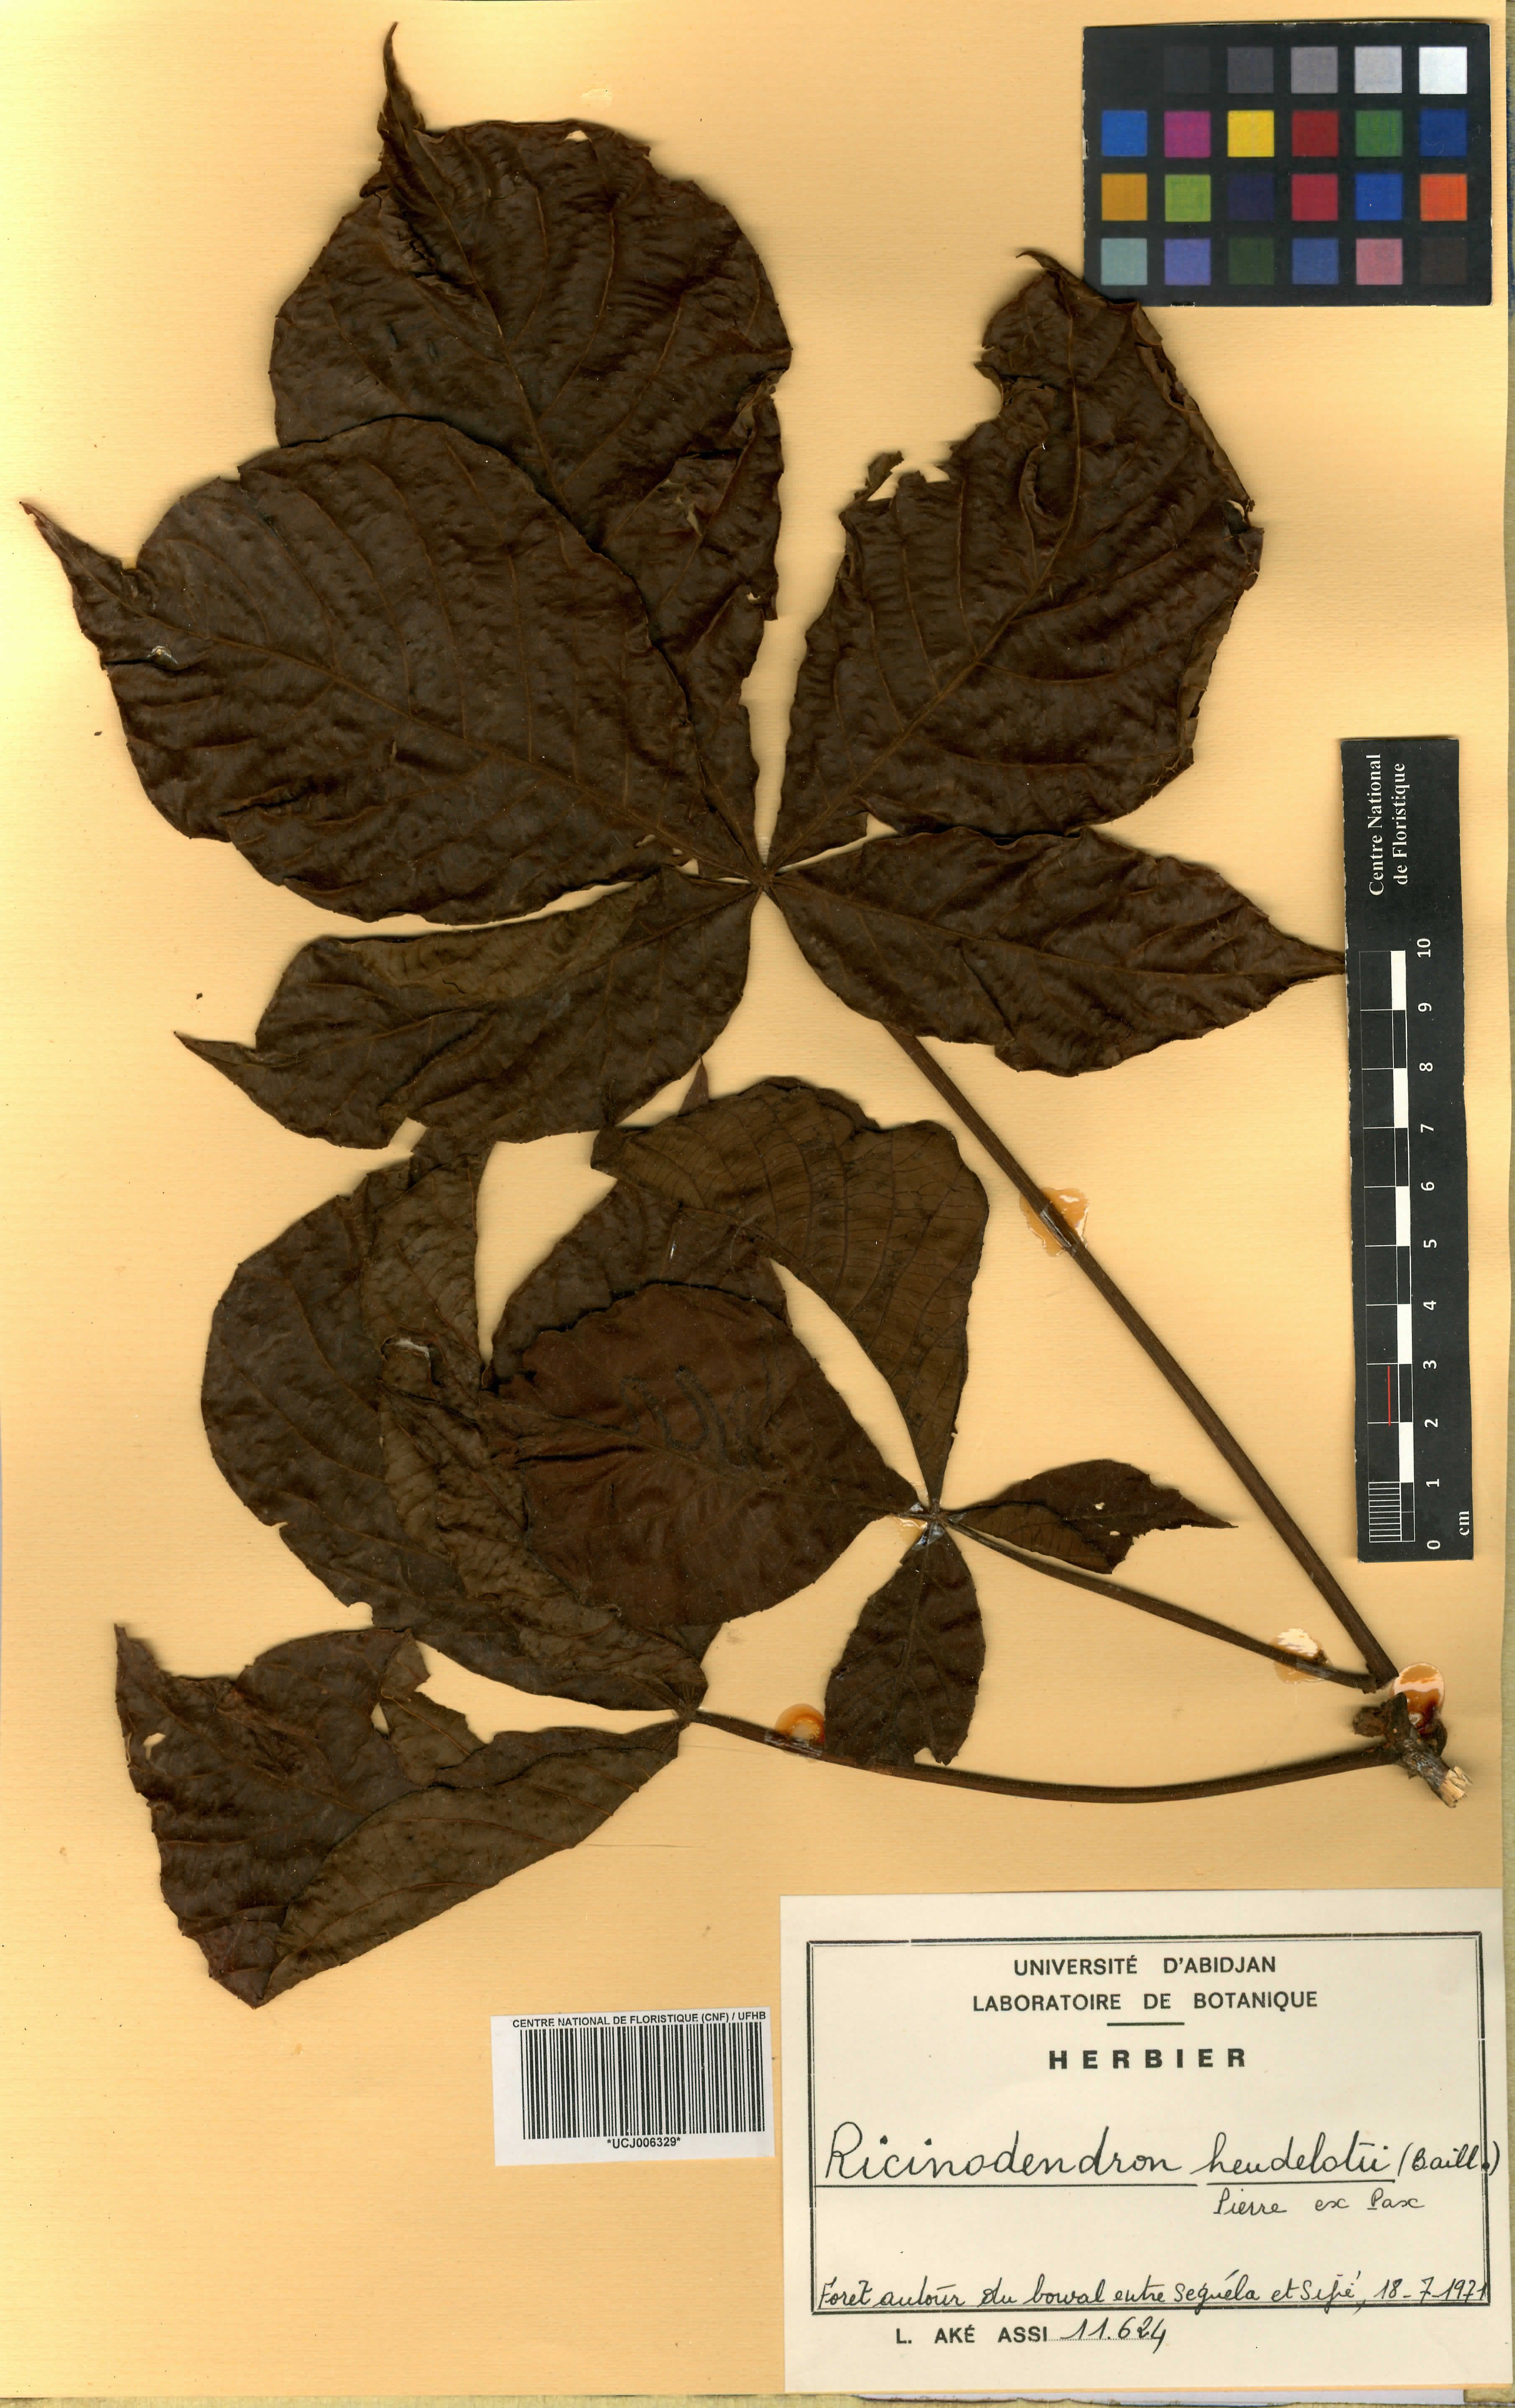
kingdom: Plantae
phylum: Tracheophyta
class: Magnoliopsida
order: Malpighiales
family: Euphorbiaceae
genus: Ricinodendron
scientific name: Ricinodendron heudelotii
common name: African nut-tree
